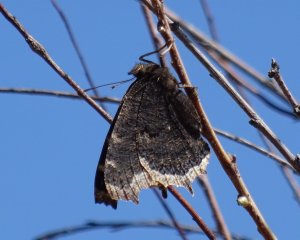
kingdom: Animalia
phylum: Arthropoda
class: Insecta
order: Lepidoptera
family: Nymphalidae
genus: Nymphalis
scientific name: Nymphalis antiopa
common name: Mourning Cloak
